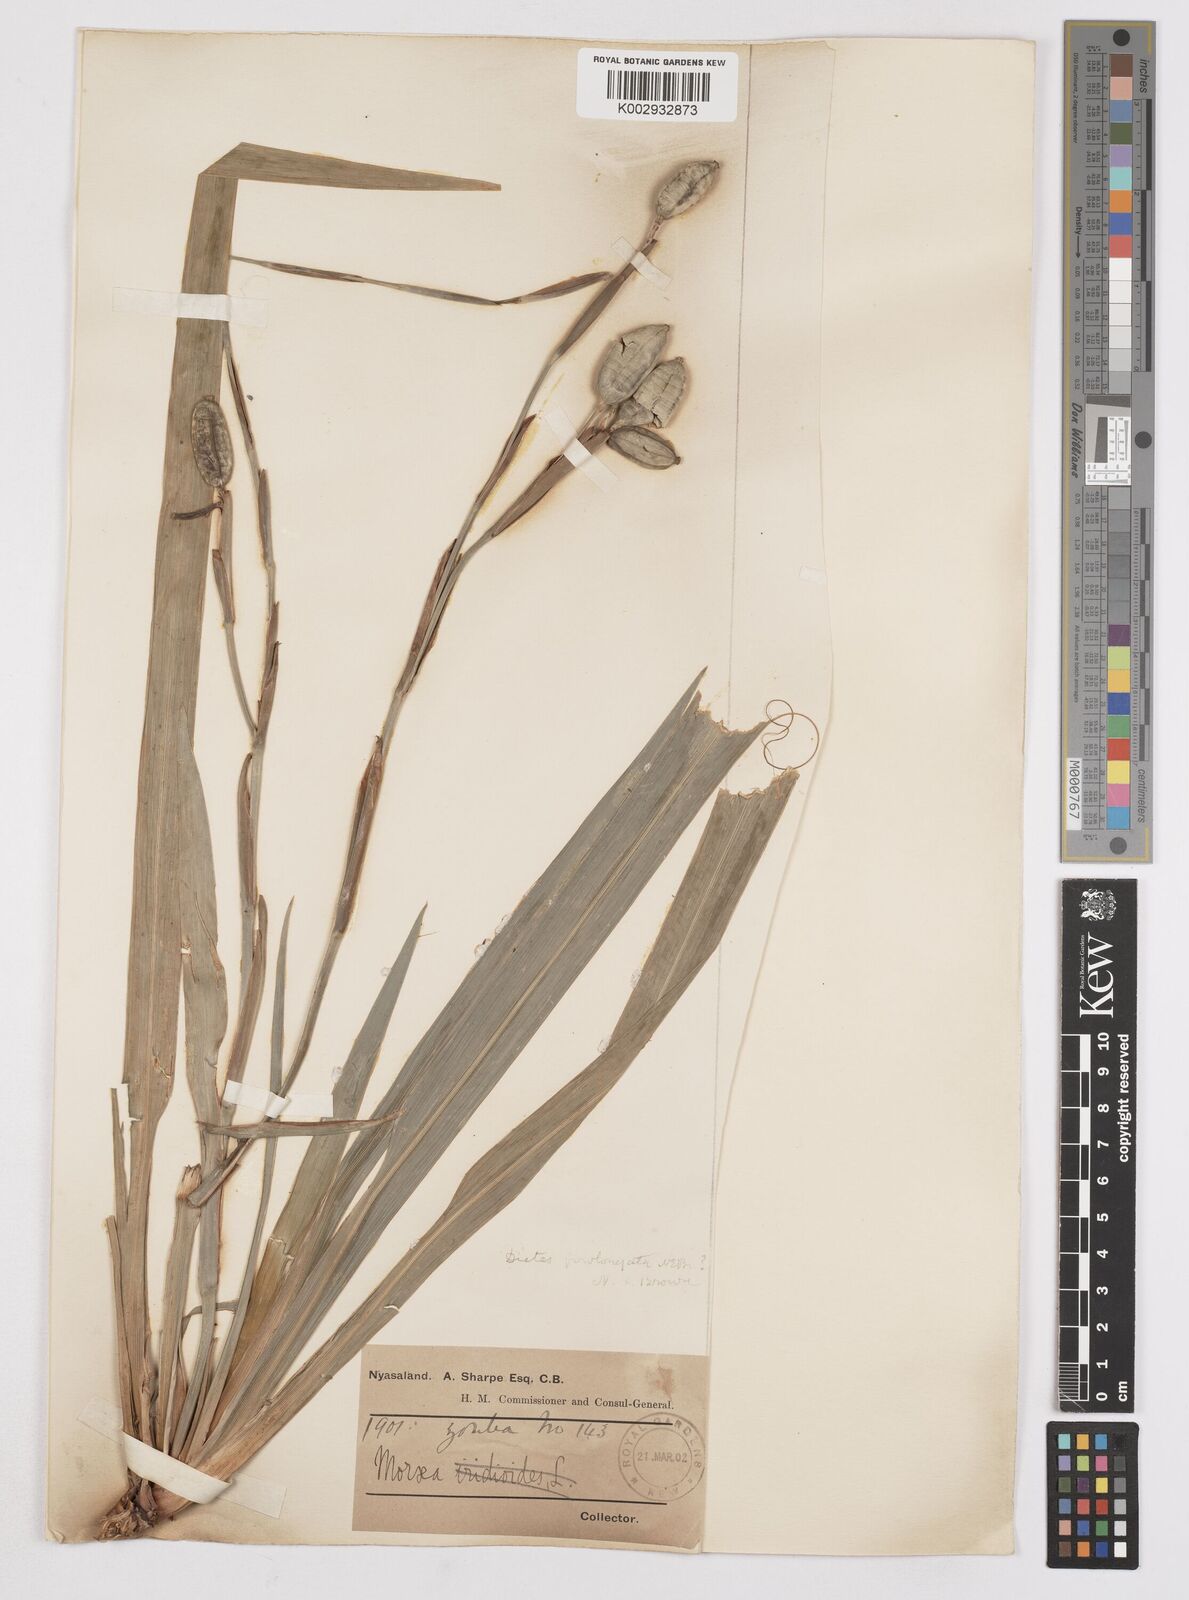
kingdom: Plantae
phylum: Tracheophyta
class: Liliopsida
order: Asparagales
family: Iridaceae
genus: Dietes
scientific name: Dietes iridioides
